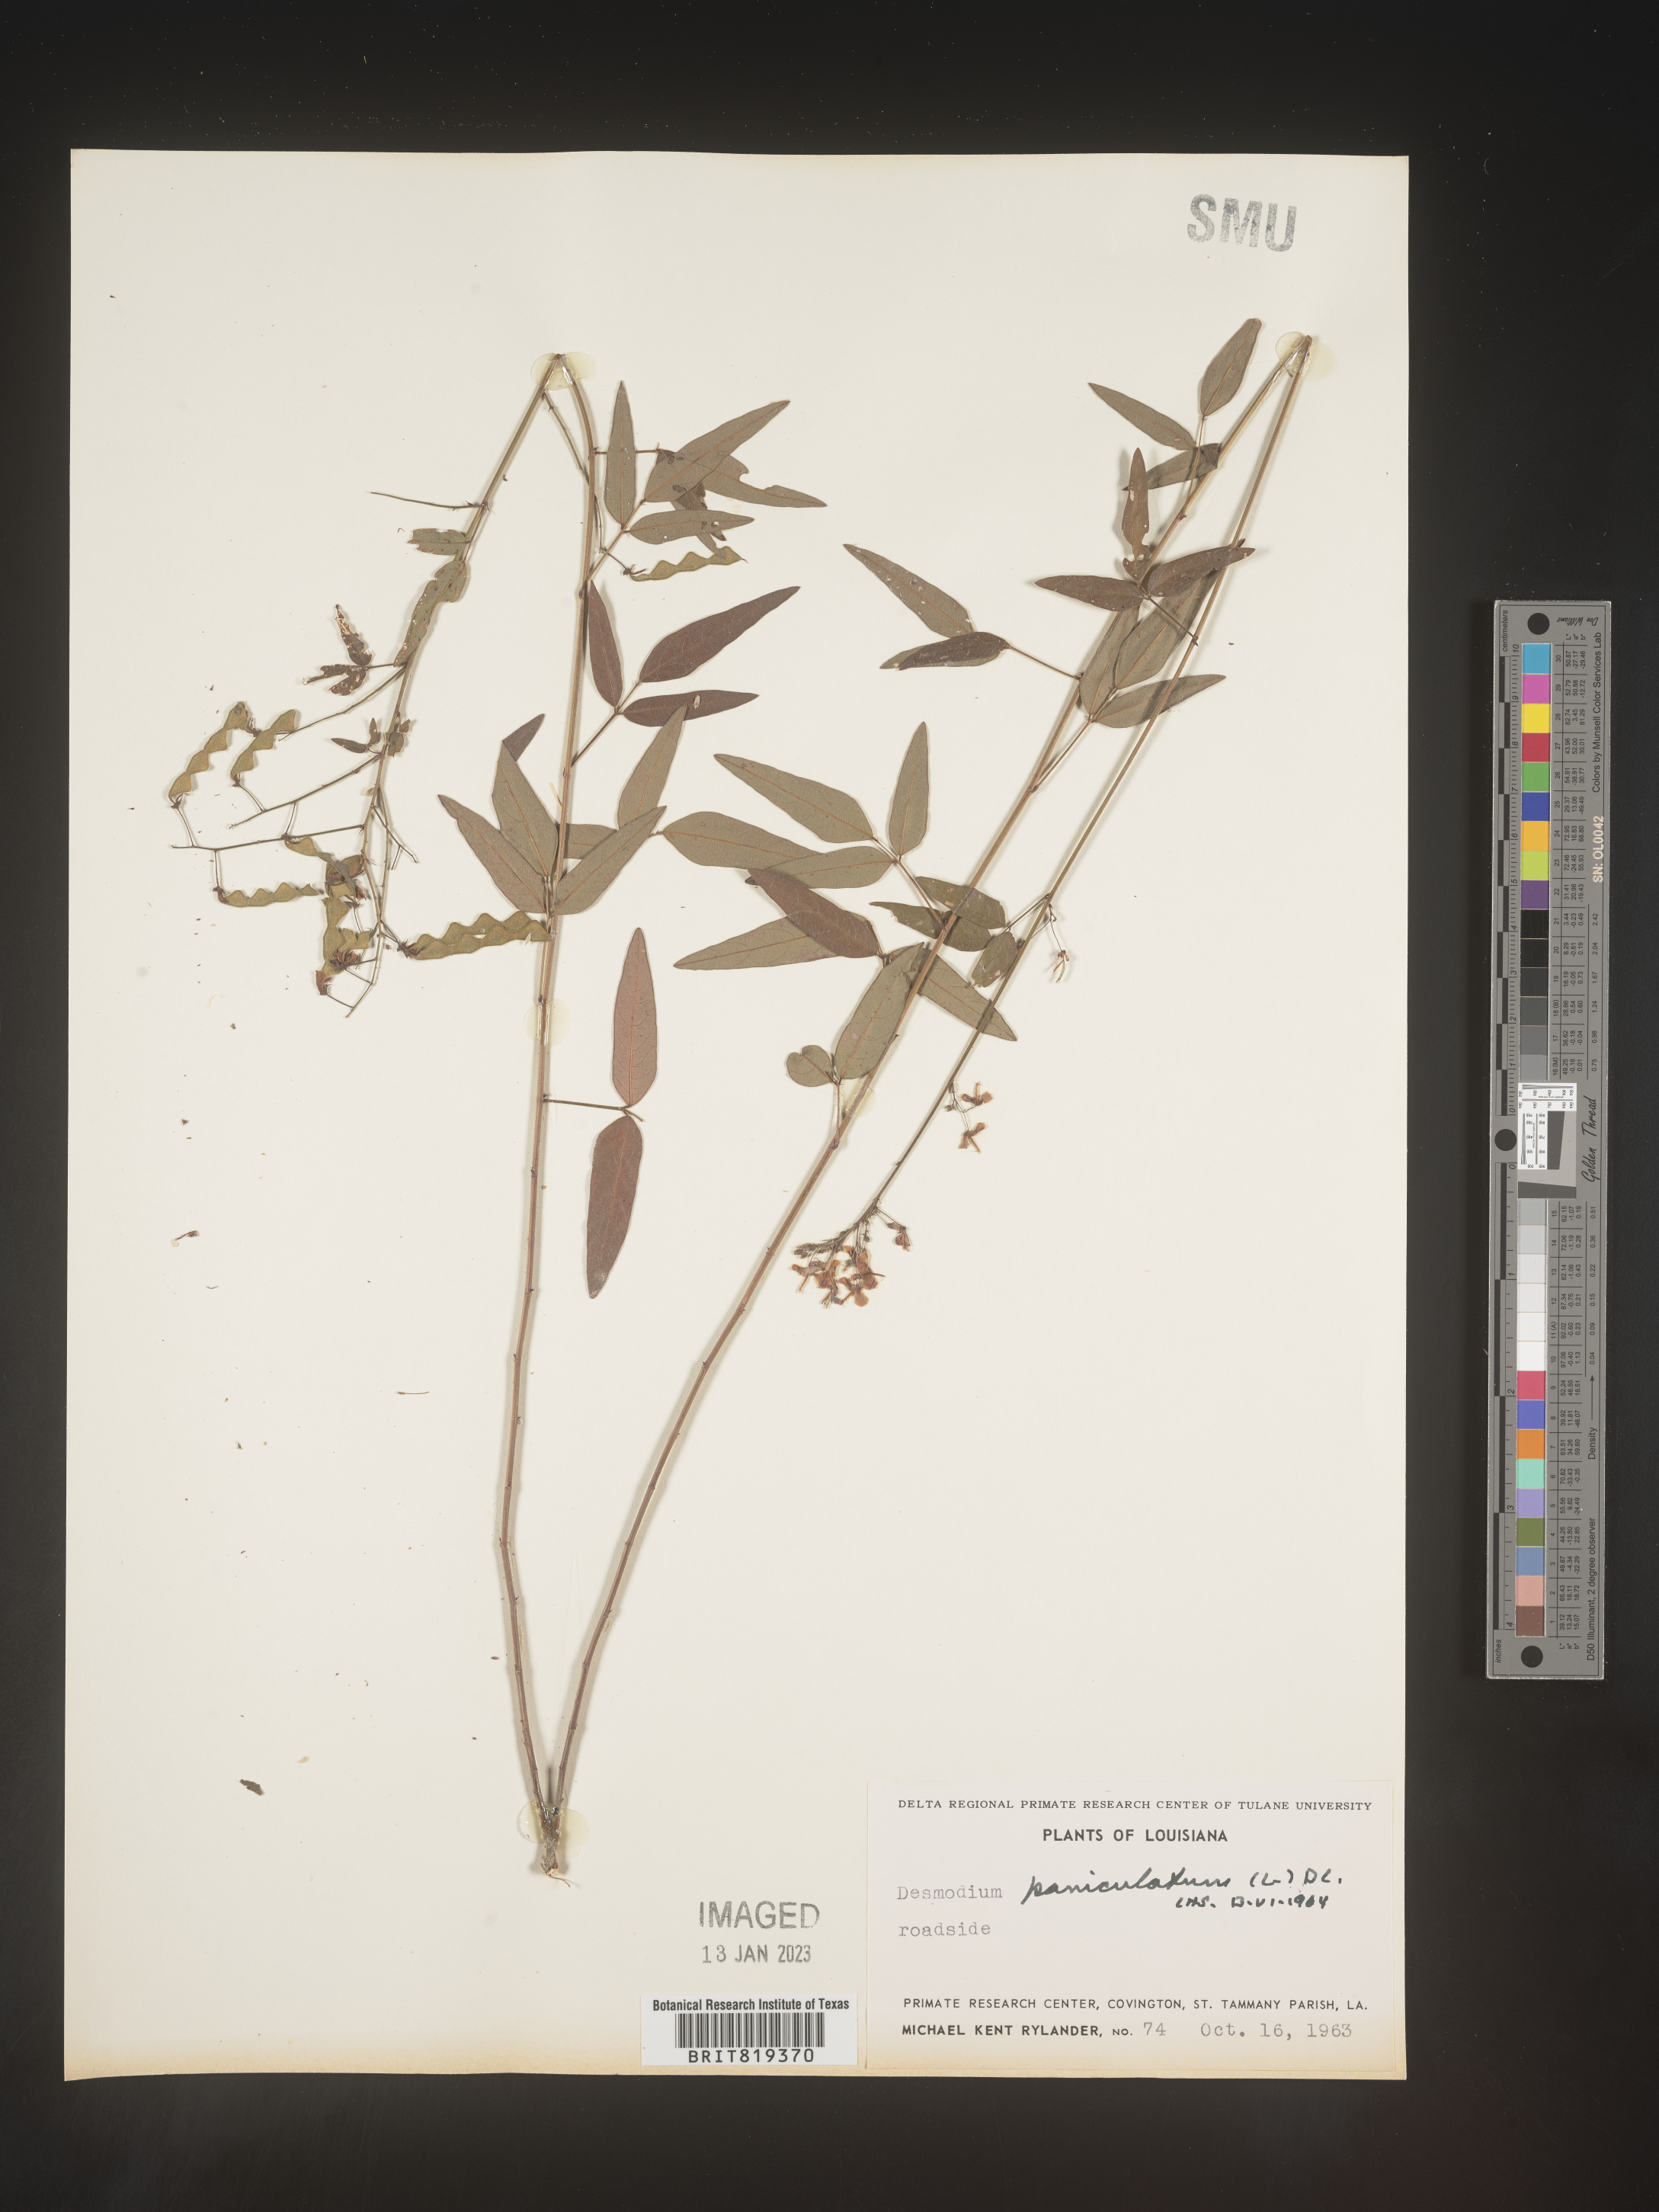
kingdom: Plantae
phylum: Tracheophyta
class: Magnoliopsida
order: Fabales
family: Fabaceae
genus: Desmodium
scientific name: Desmodium paniculatum
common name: Panicled tick-clover
